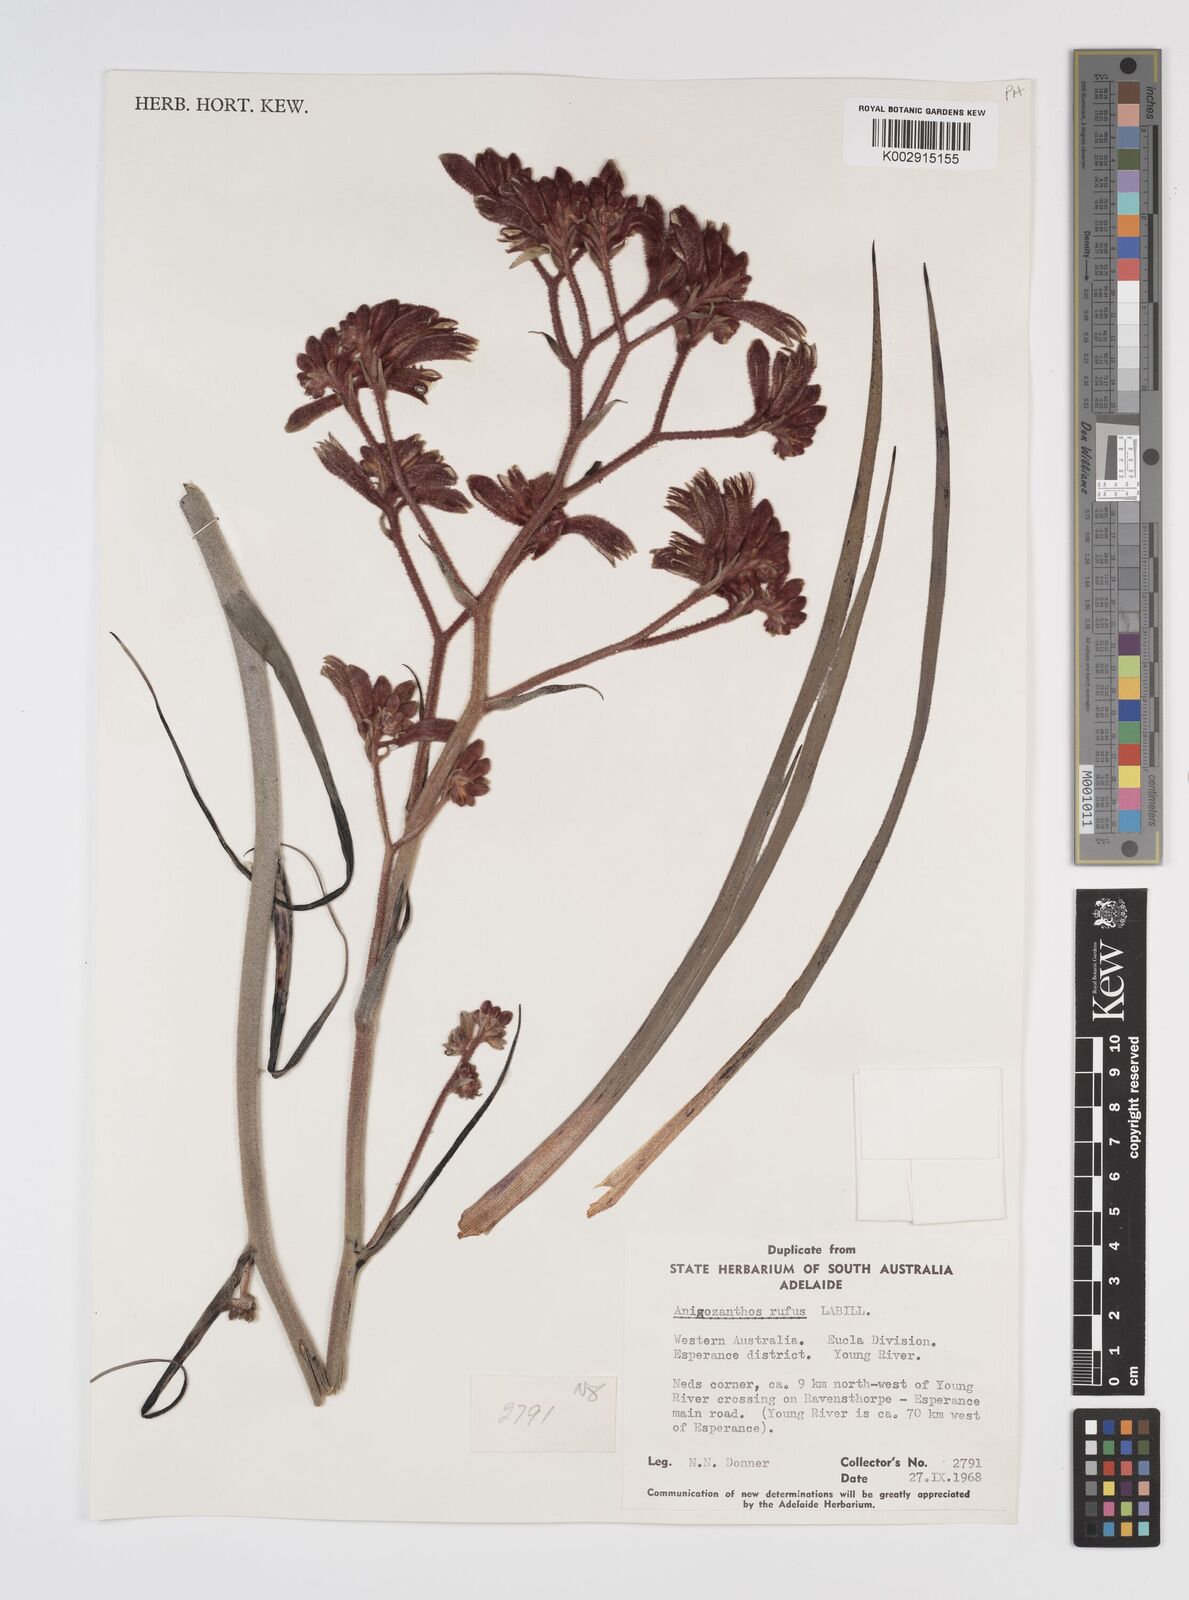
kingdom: Plantae
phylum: Tracheophyta
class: Liliopsida
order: Commelinales
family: Haemodoraceae
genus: Anigozanthos
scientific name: Anigozanthos rufus
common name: Red kangaroo-paw
